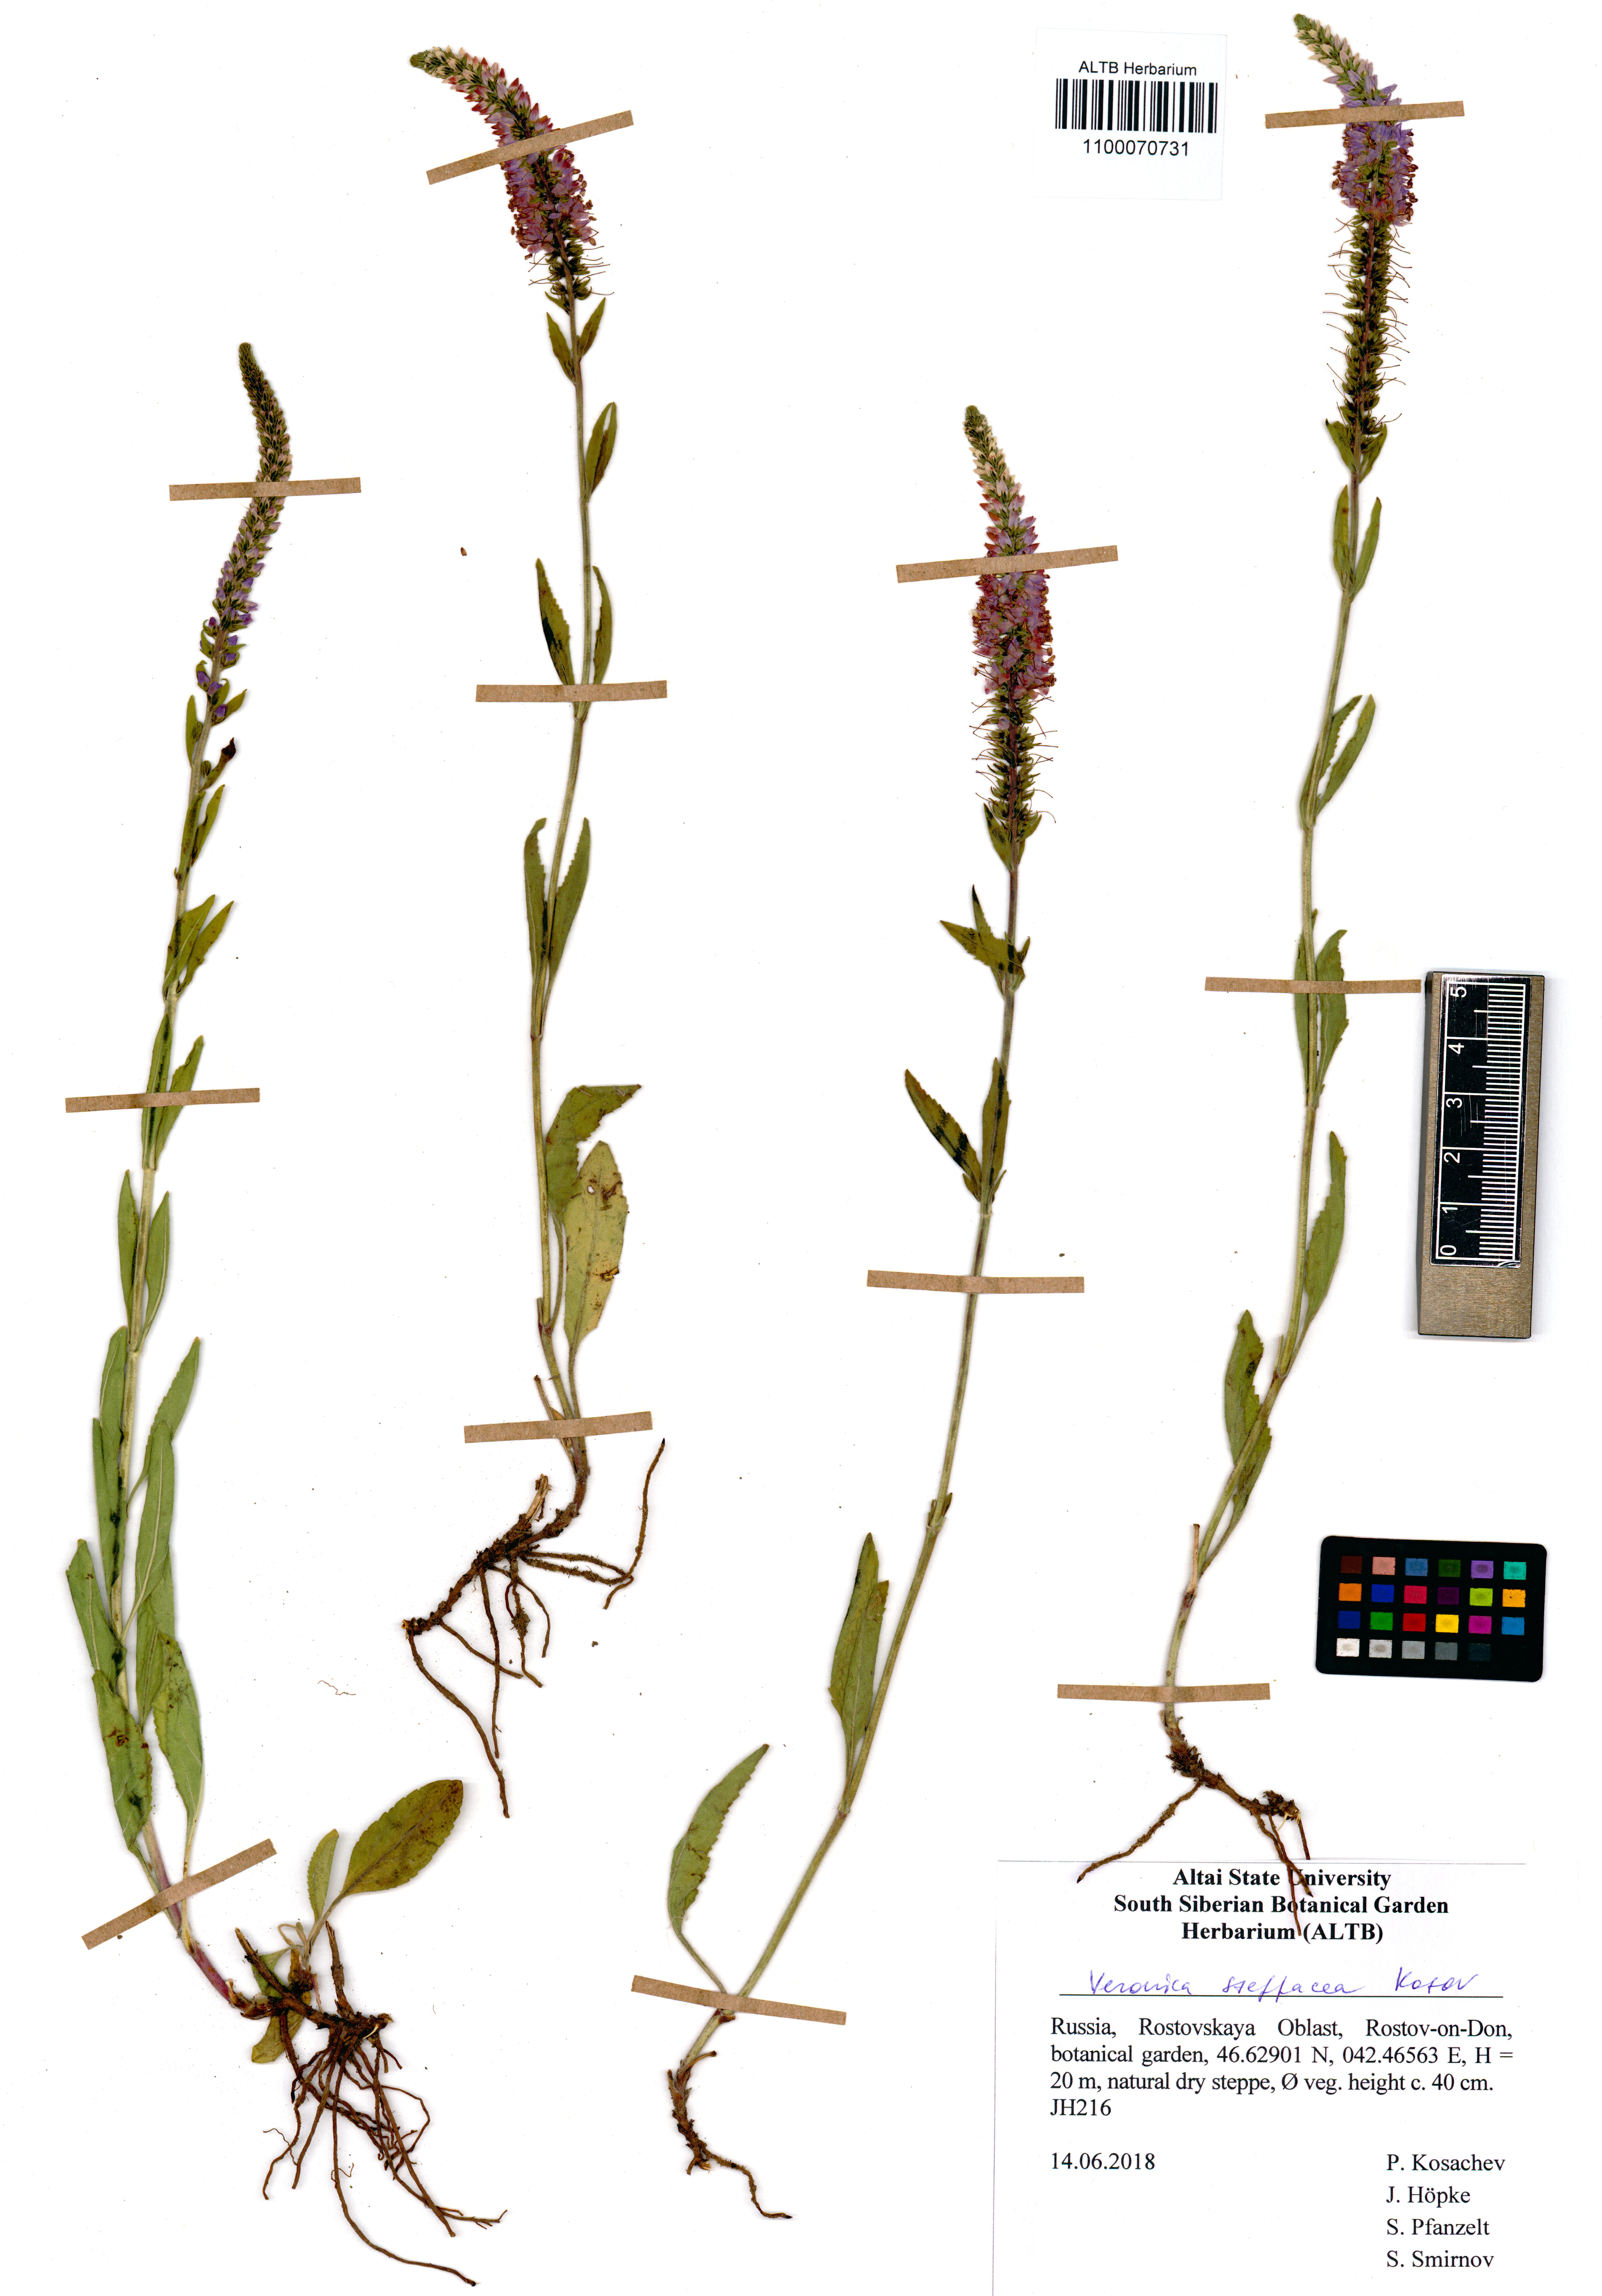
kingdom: Plantae
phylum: Tracheophyta
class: Magnoliopsida
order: Lamiales
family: Plantaginaceae
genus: Veronica
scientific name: Veronica barrelieri
